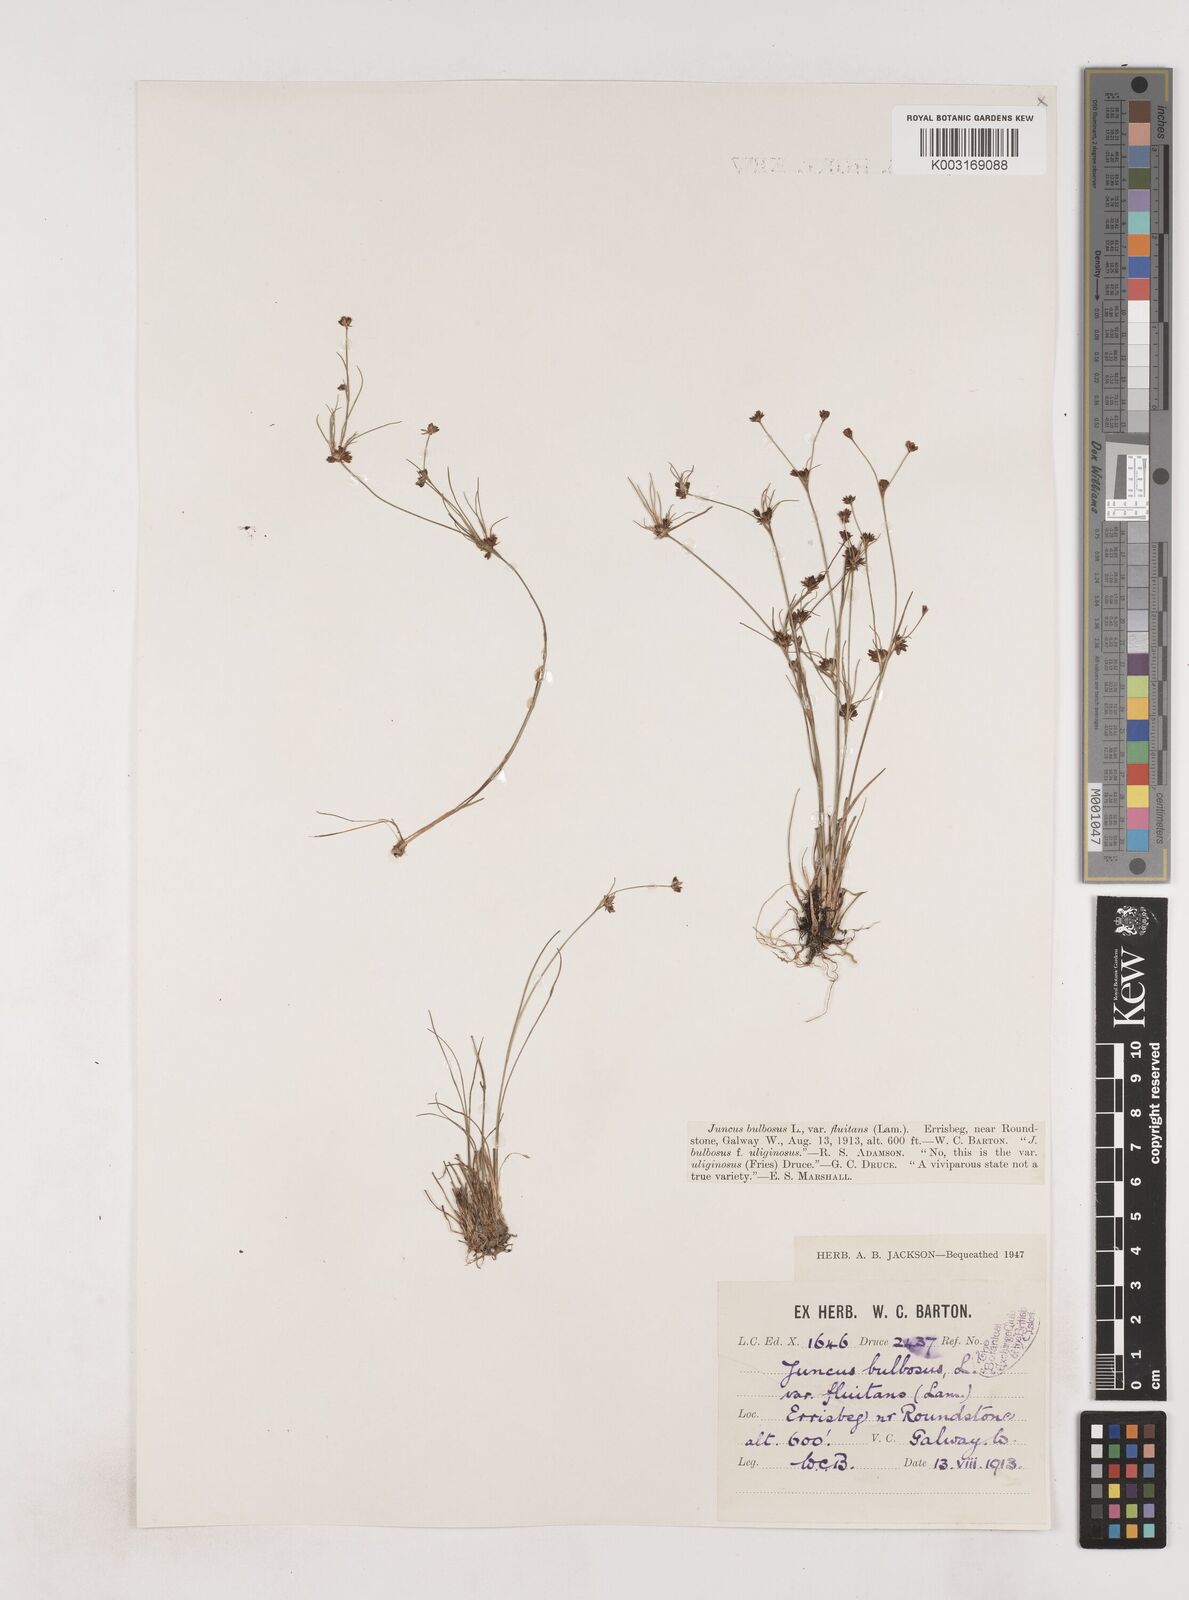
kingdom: Plantae
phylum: Tracheophyta
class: Liliopsida
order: Poales
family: Juncaceae
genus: Juncus
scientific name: Juncus bulbosus
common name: Bulbous rush
